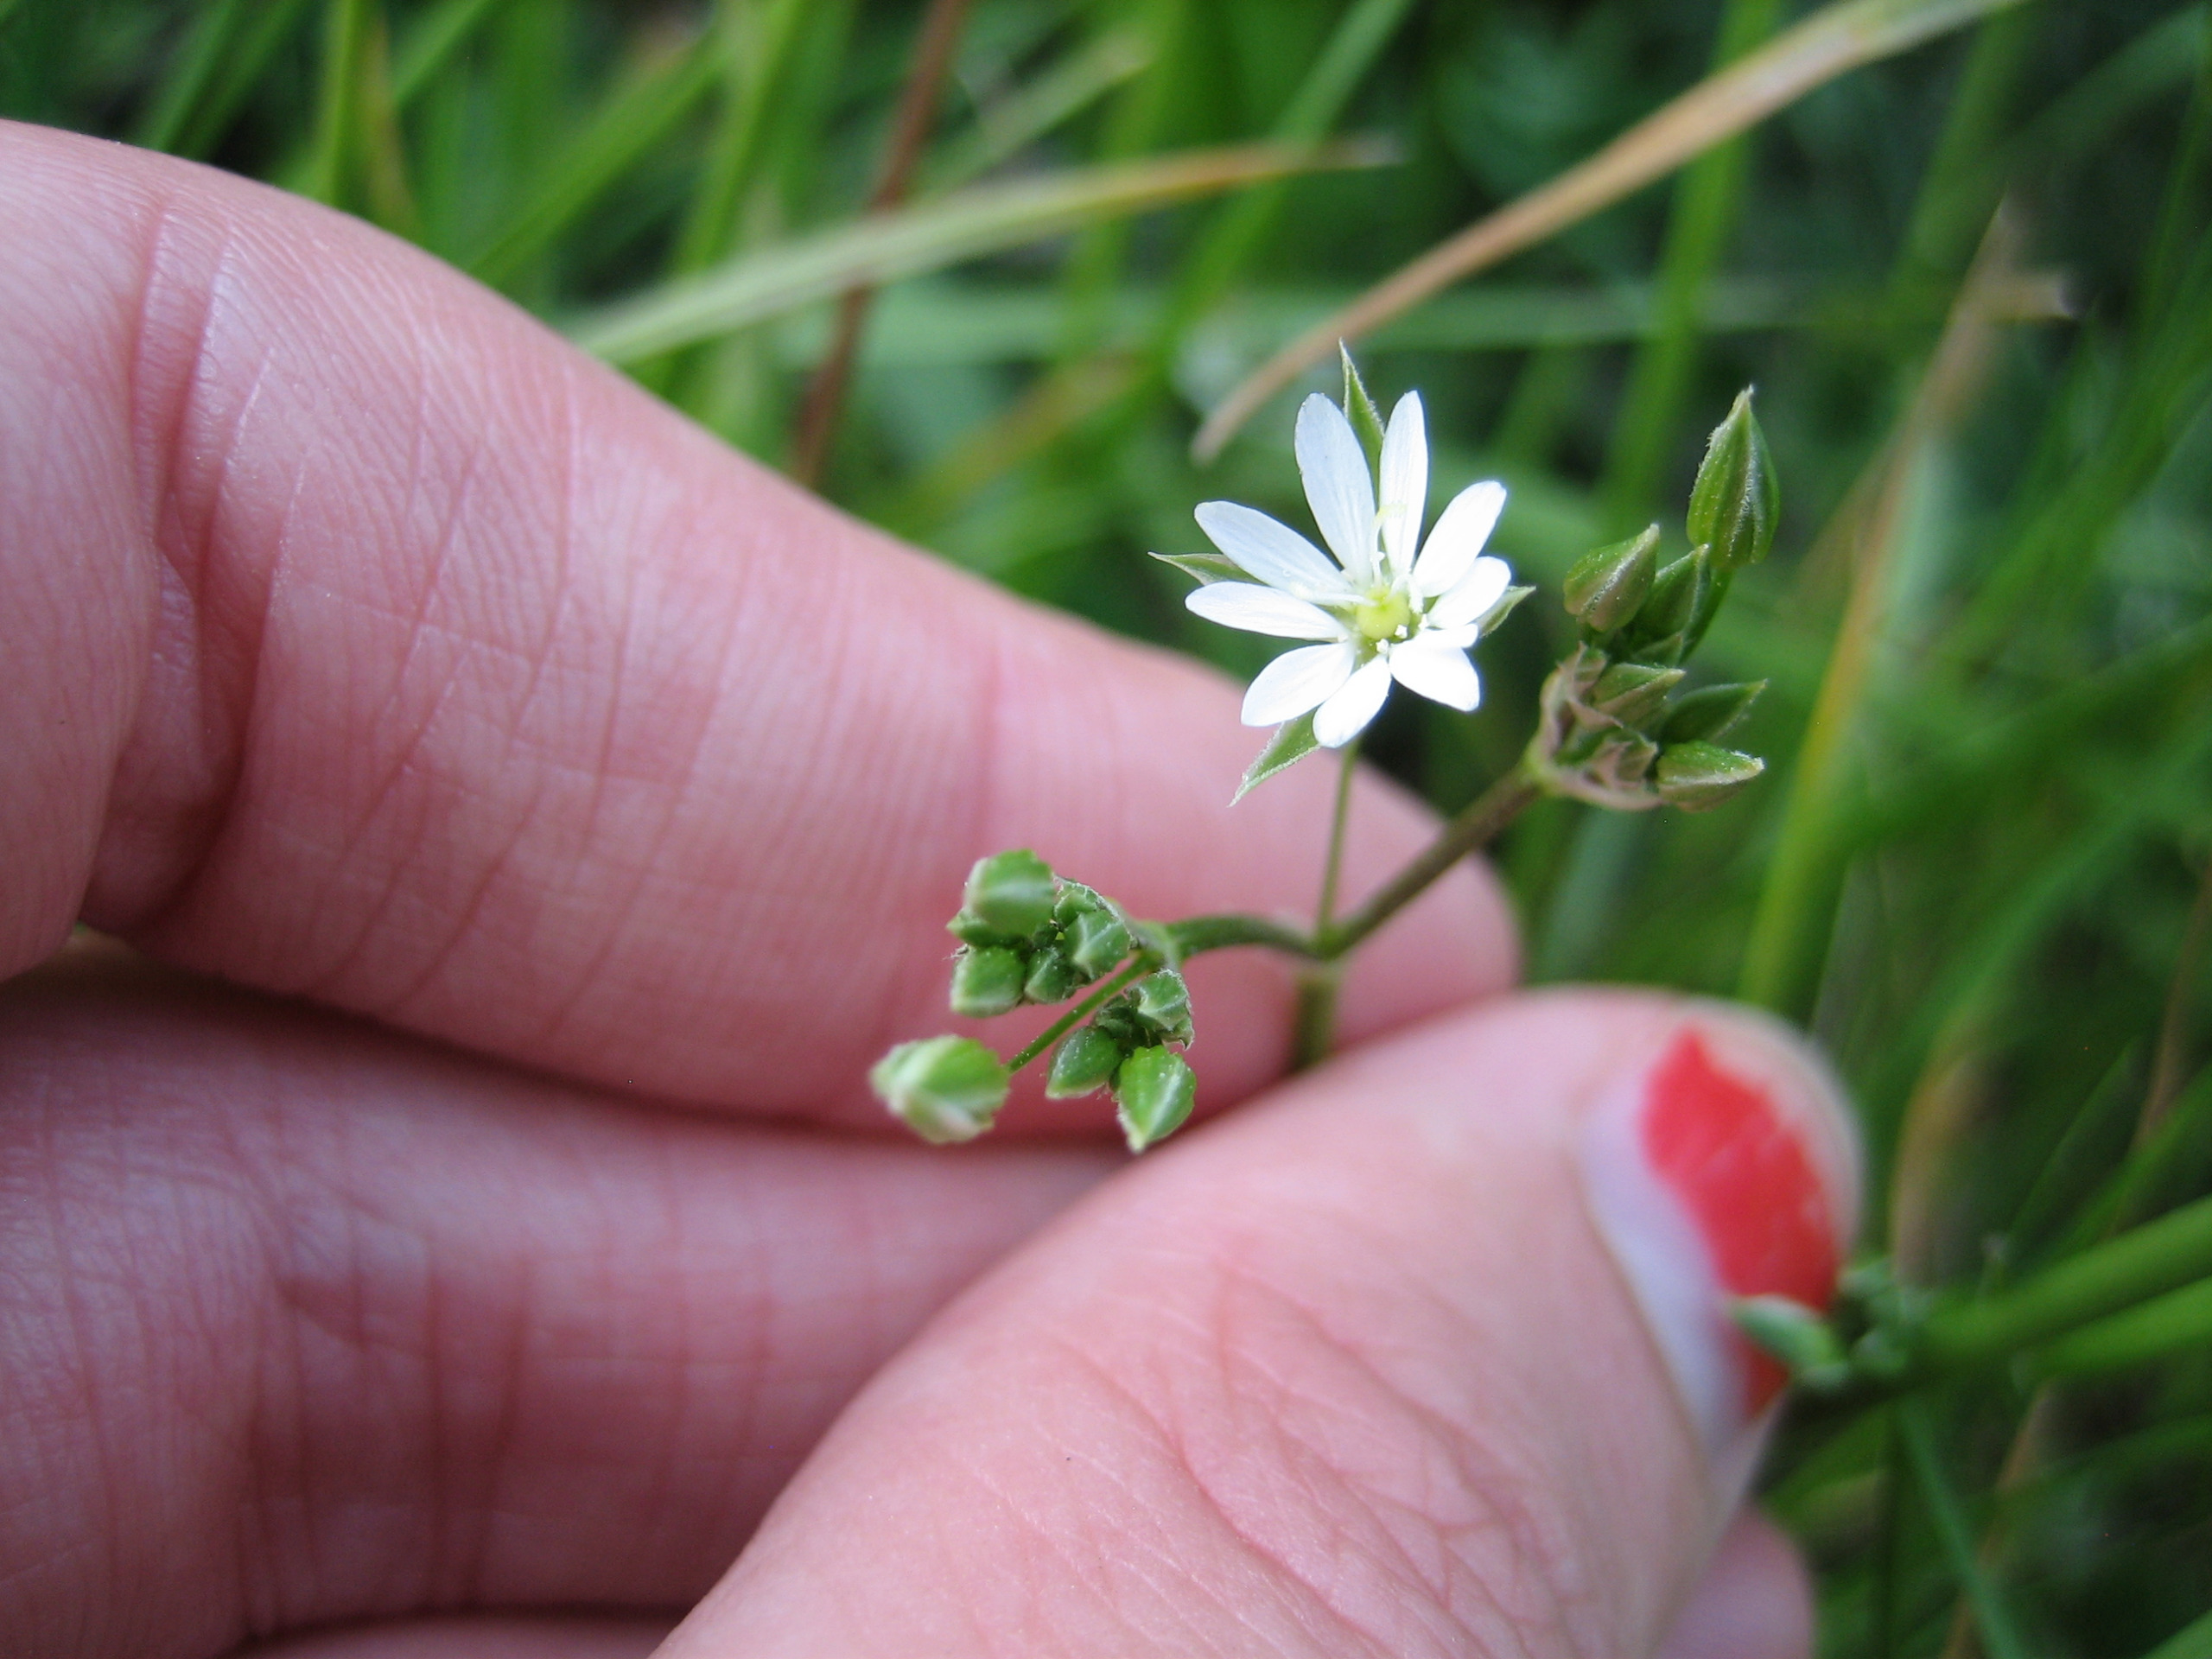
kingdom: Plantae
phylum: Tracheophyta
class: Magnoliopsida
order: Caryophyllales
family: Caryophyllaceae
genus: Stellaria
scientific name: Stellaria graminea
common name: Græsbladet fladstjerne
